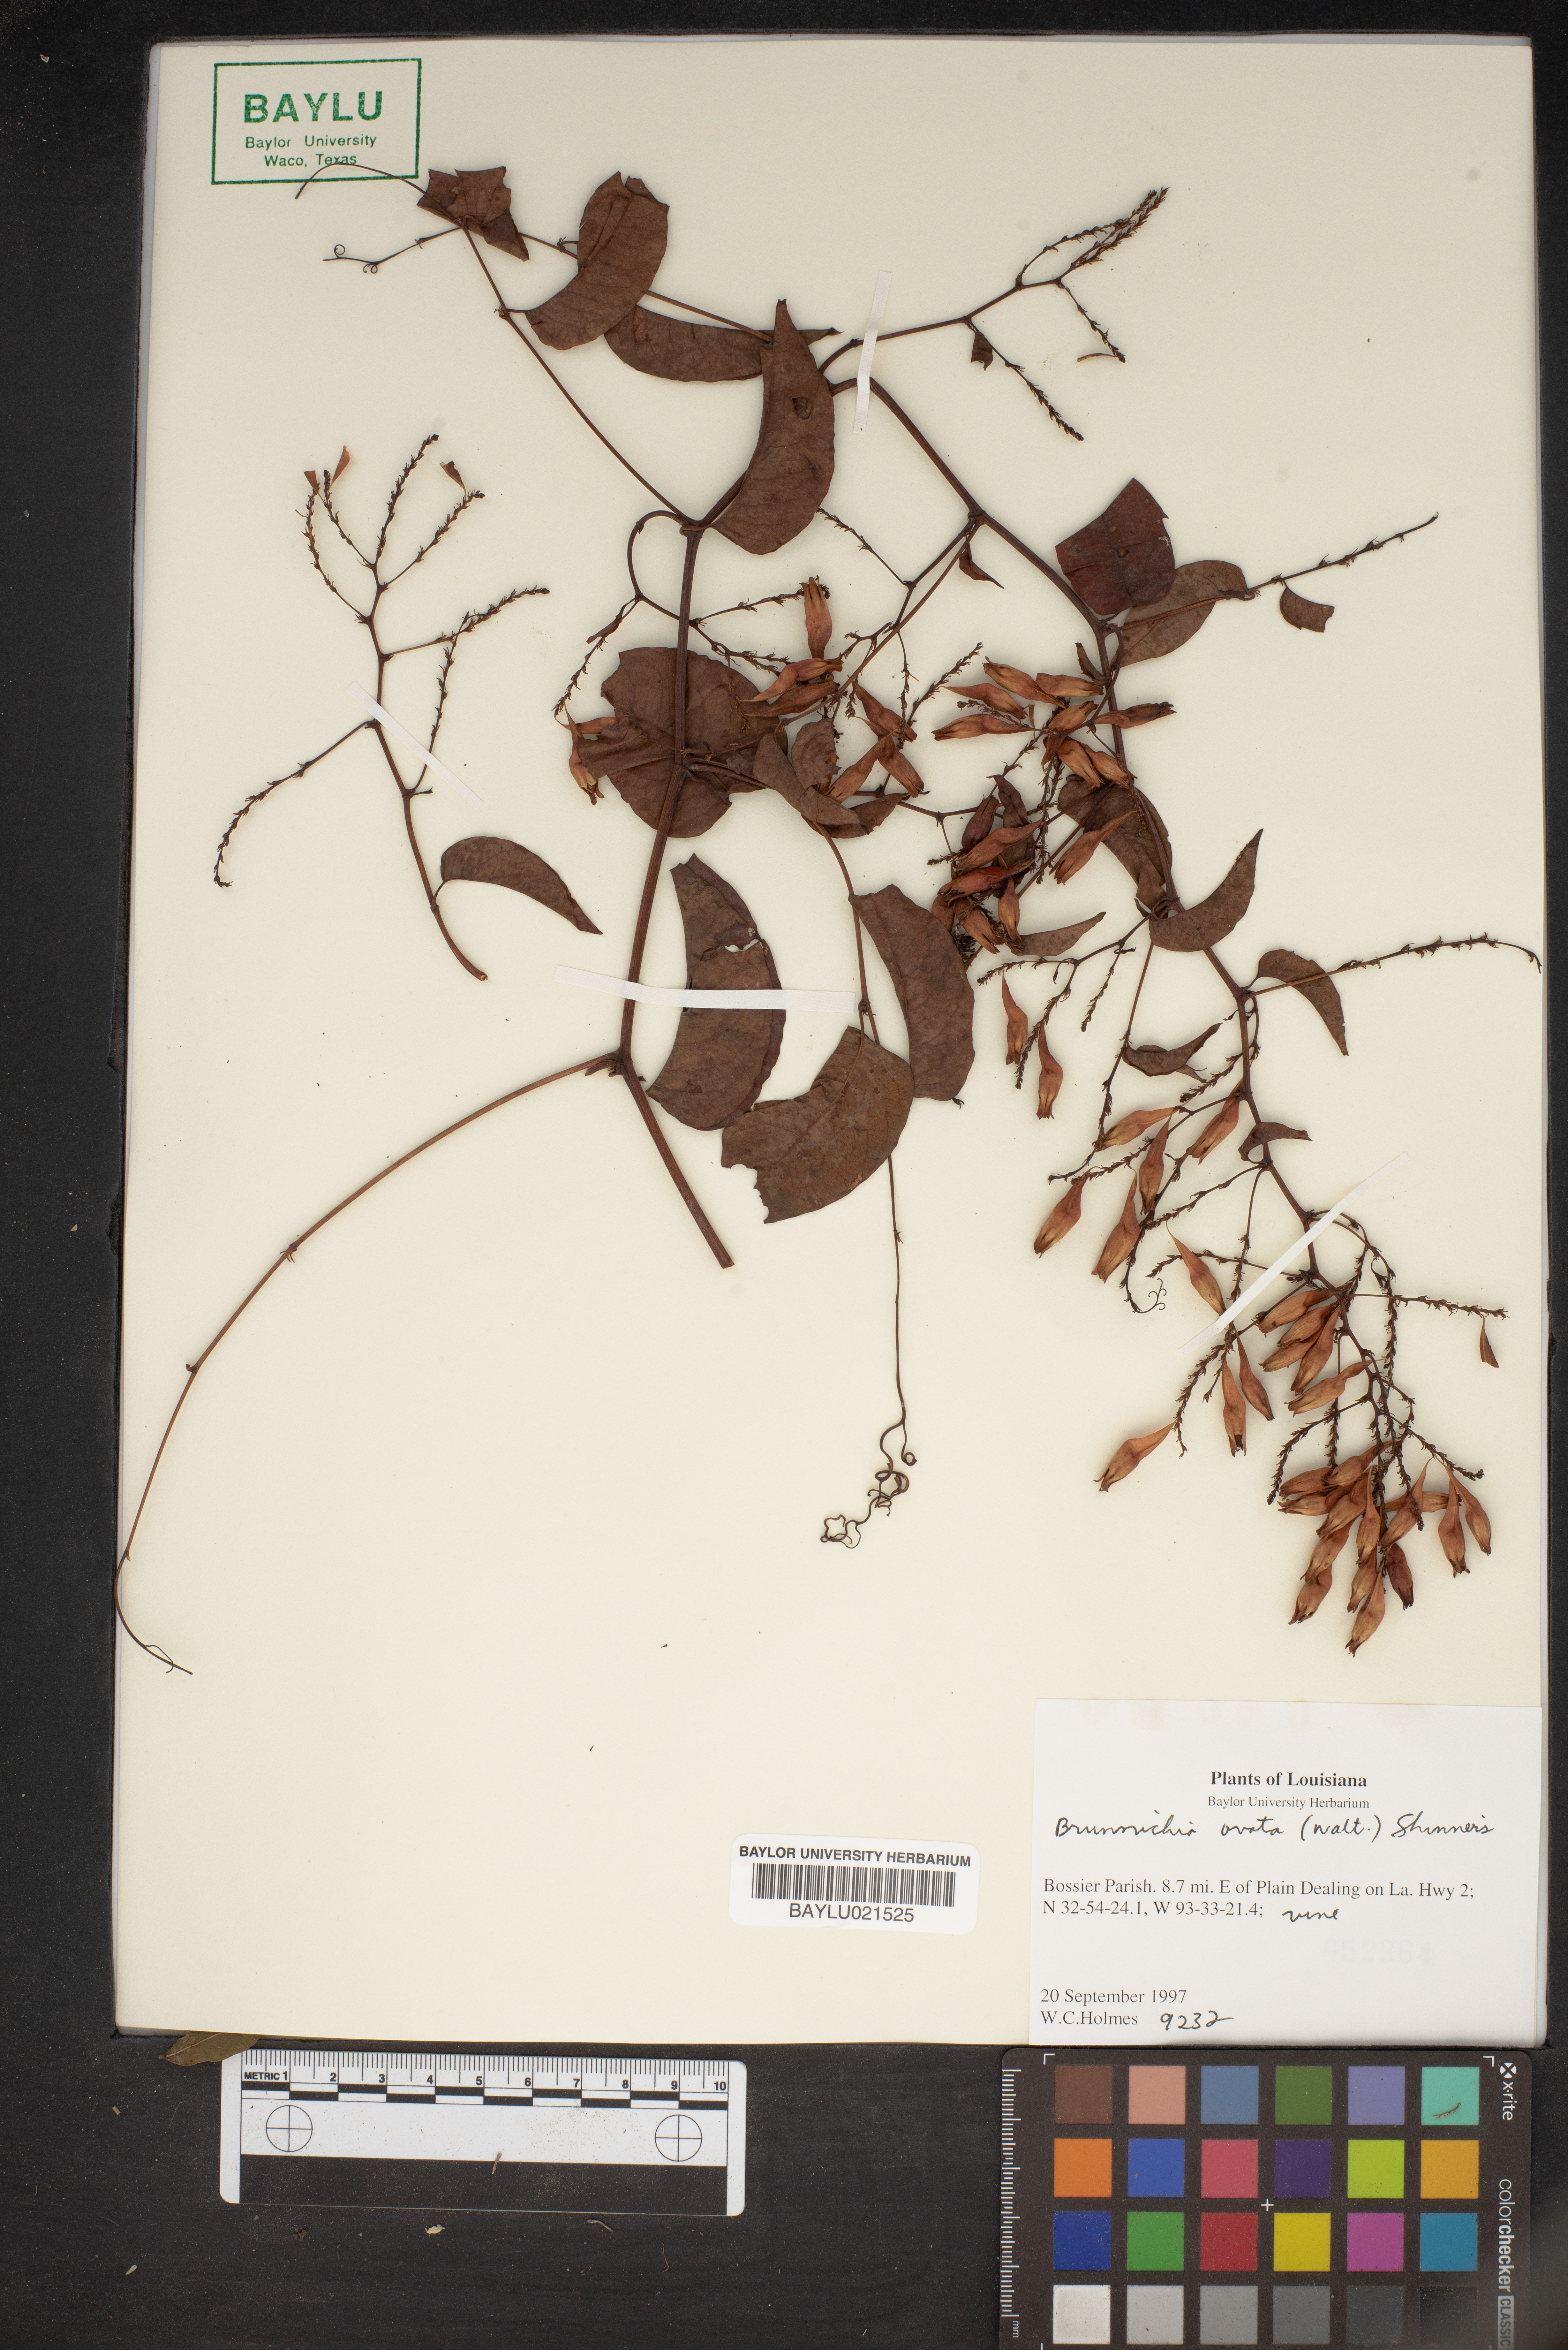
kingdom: Plantae
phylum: Tracheophyta
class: Magnoliopsida
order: Caryophyllales
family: Polygonaceae
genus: Brunnichia
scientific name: Brunnichia ovata
